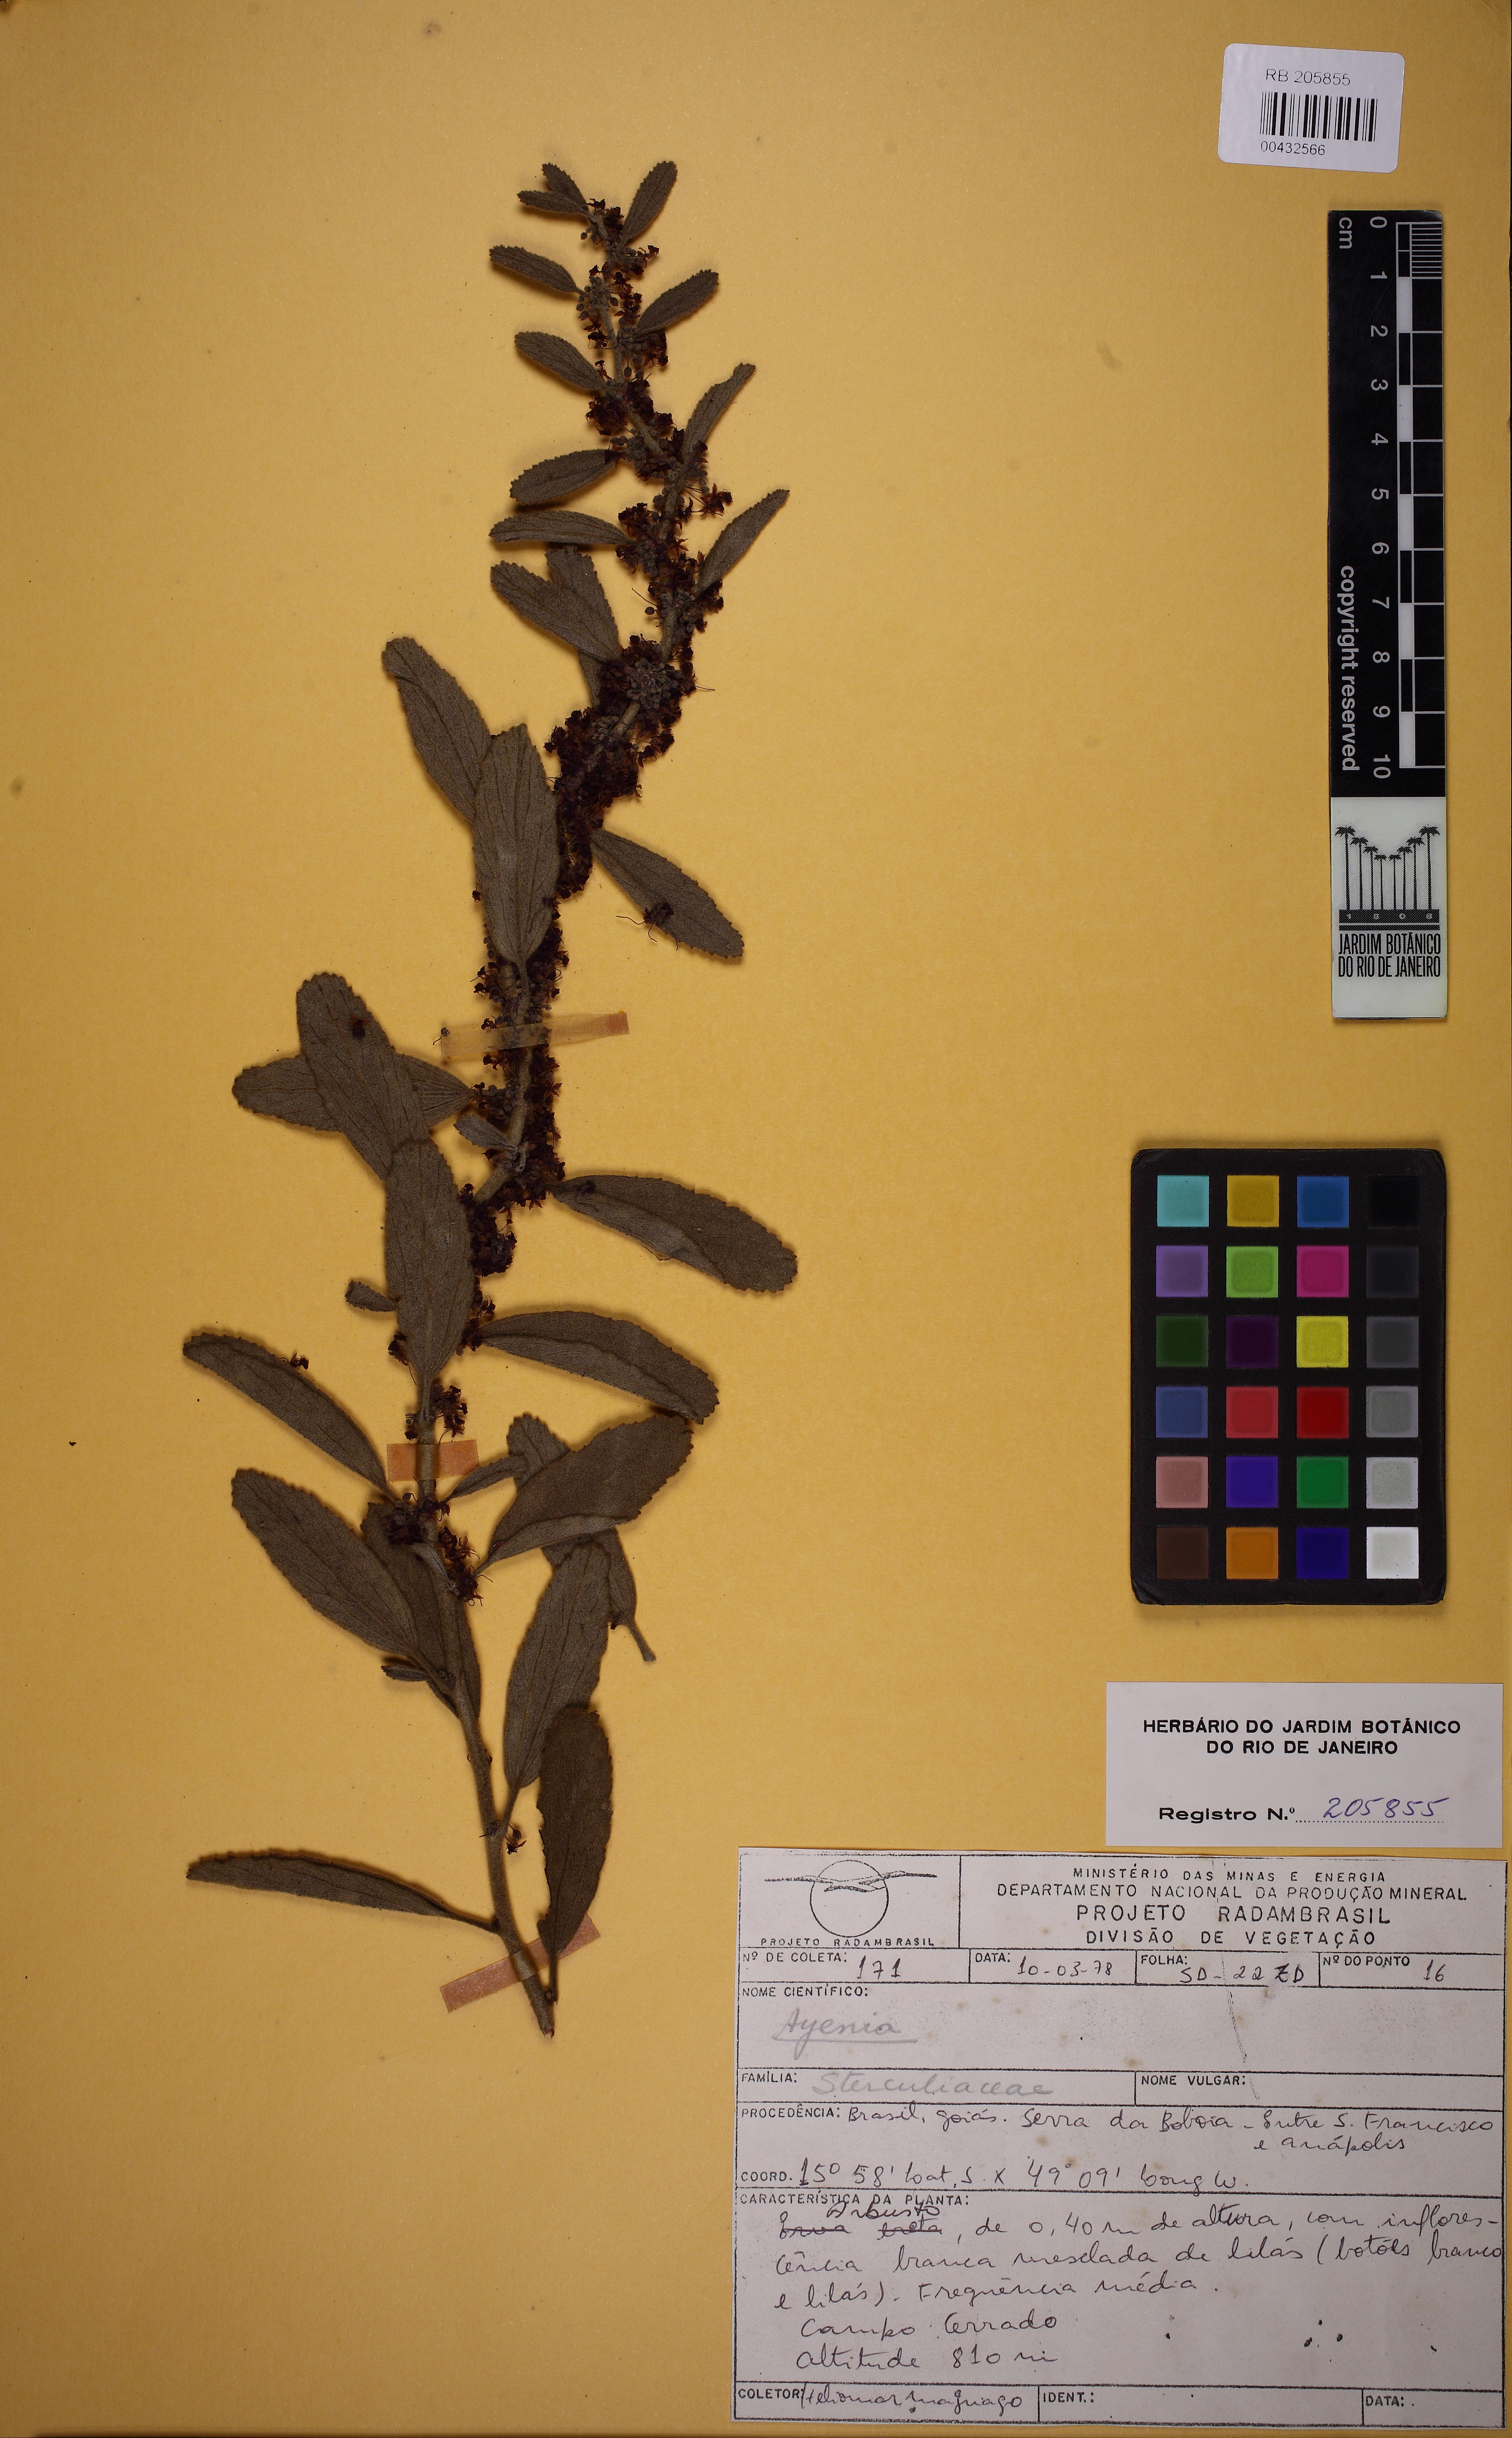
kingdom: Plantae
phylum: Tracheophyta
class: Magnoliopsida
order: Malvales
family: Malvaceae
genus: Ayenia
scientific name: Ayenia
